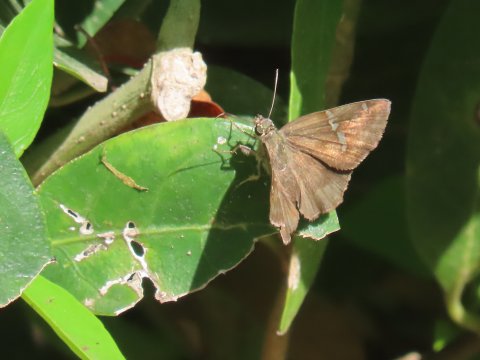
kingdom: Animalia
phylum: Arthropoda
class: Insecta
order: Lepidoptera
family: Hesperiidae
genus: Cabares
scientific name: Cabares potrillo
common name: Potrillo Skipper
